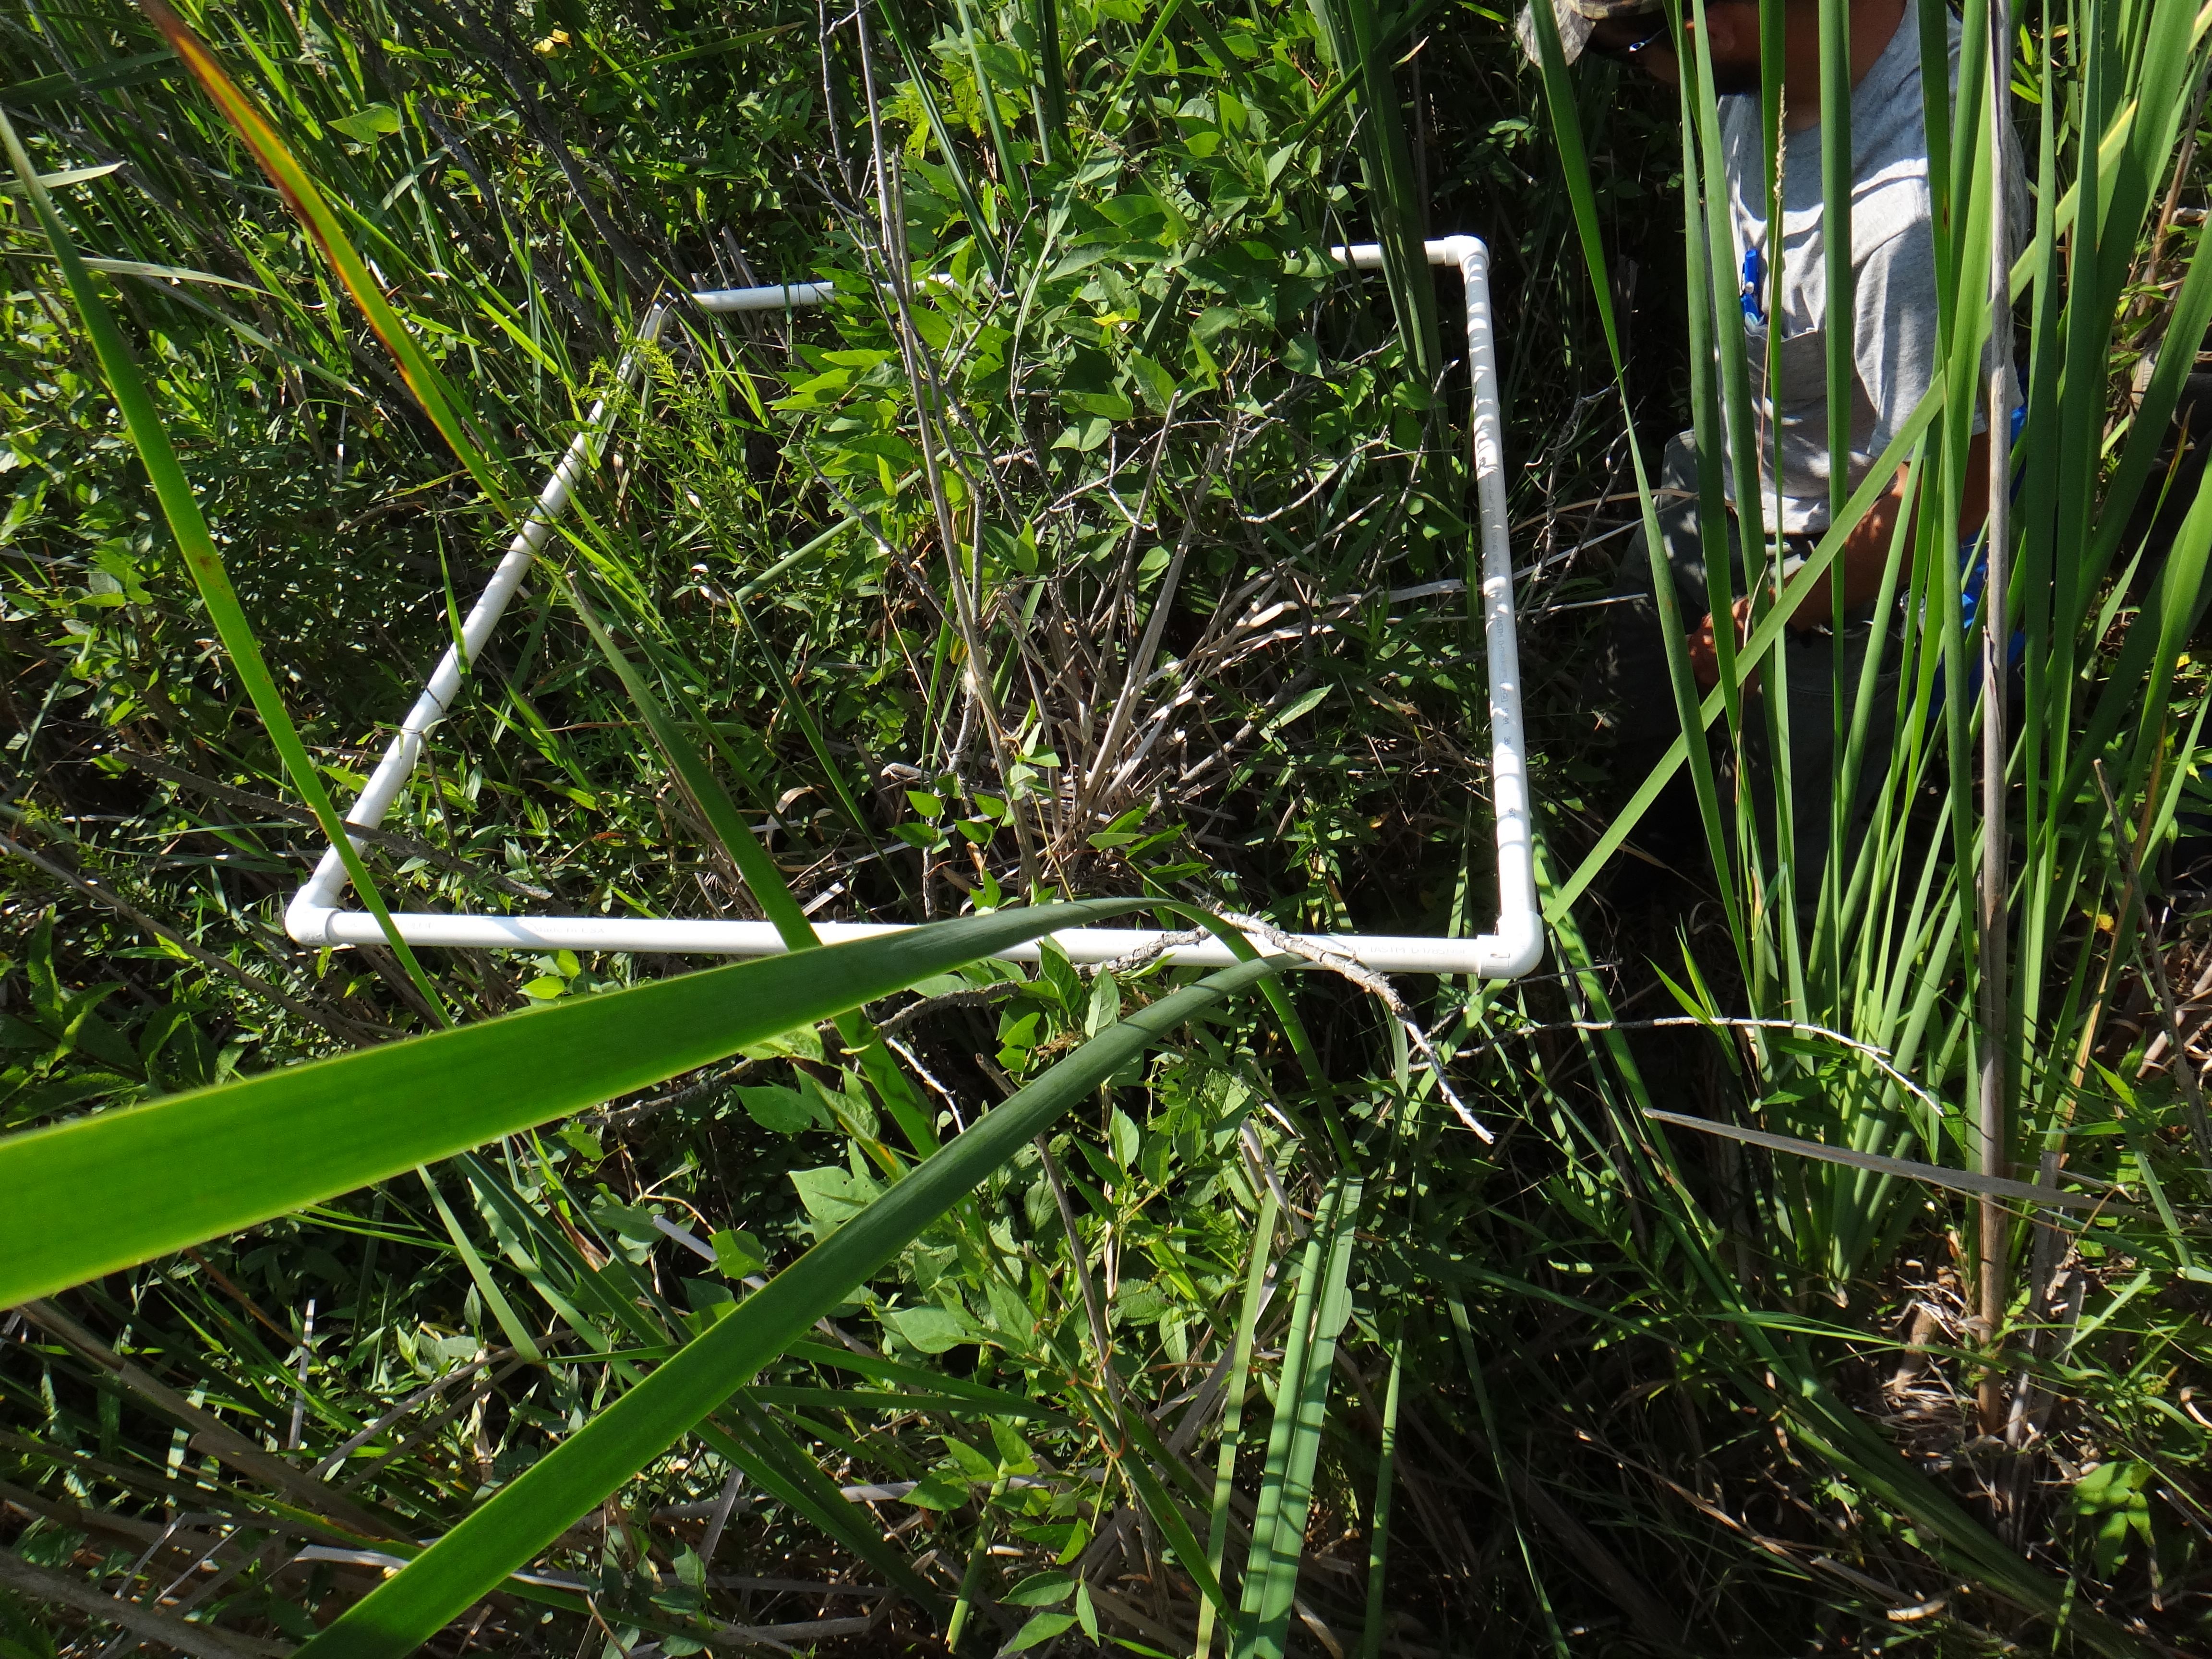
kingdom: Plantae
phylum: Tracheophyta
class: Magnoliopsida
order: Cornales
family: Cornaceae
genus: Cornus
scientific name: Cornus foemina
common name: Swamp dogwood
